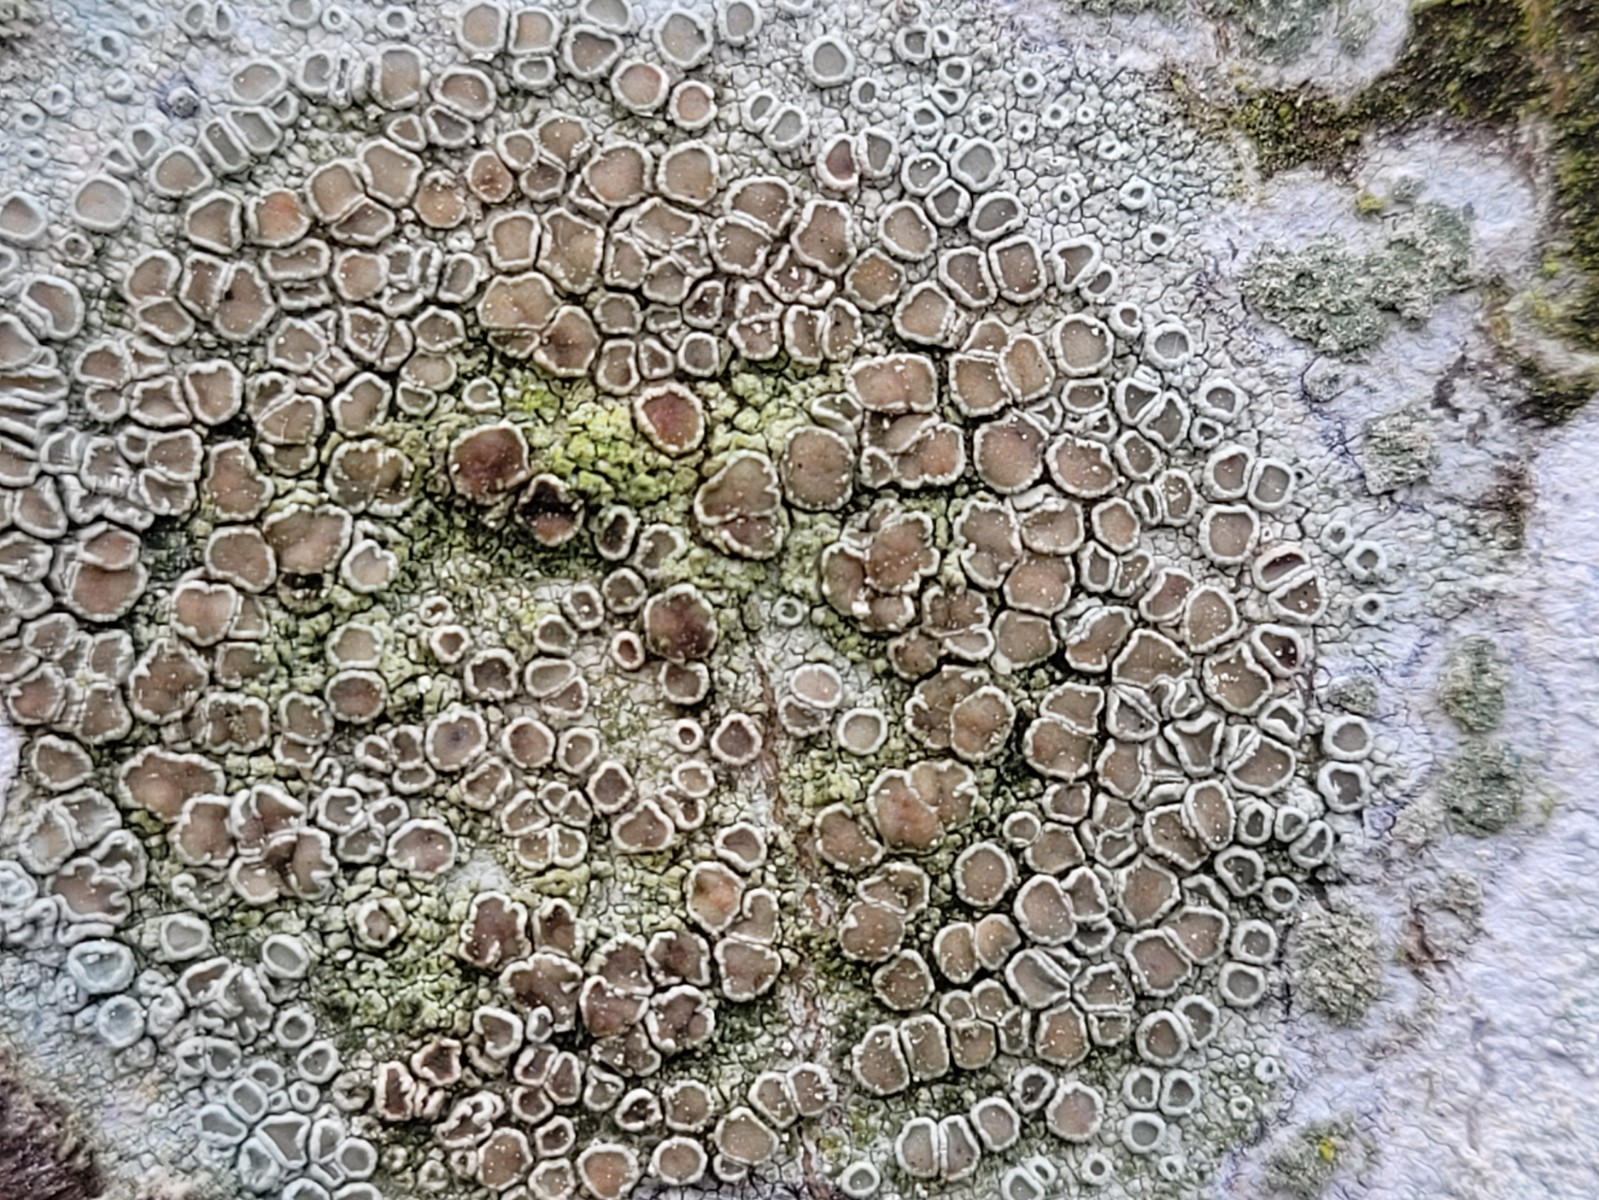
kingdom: Fungi
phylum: Ascomycota
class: Lecanoromycetes
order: Lecanorales
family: Lecanoraceae
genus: Lecanora
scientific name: Lecanora chlarotera
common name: brun kantskivelav
